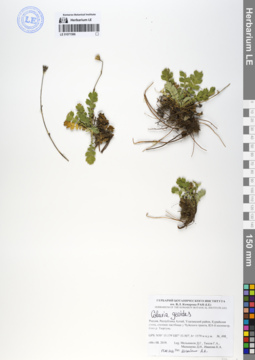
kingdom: Plantae
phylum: Tracheophyta
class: Magnoliopsida
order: Rosales
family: Rosaceae
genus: Geum
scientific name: Geum geoides
